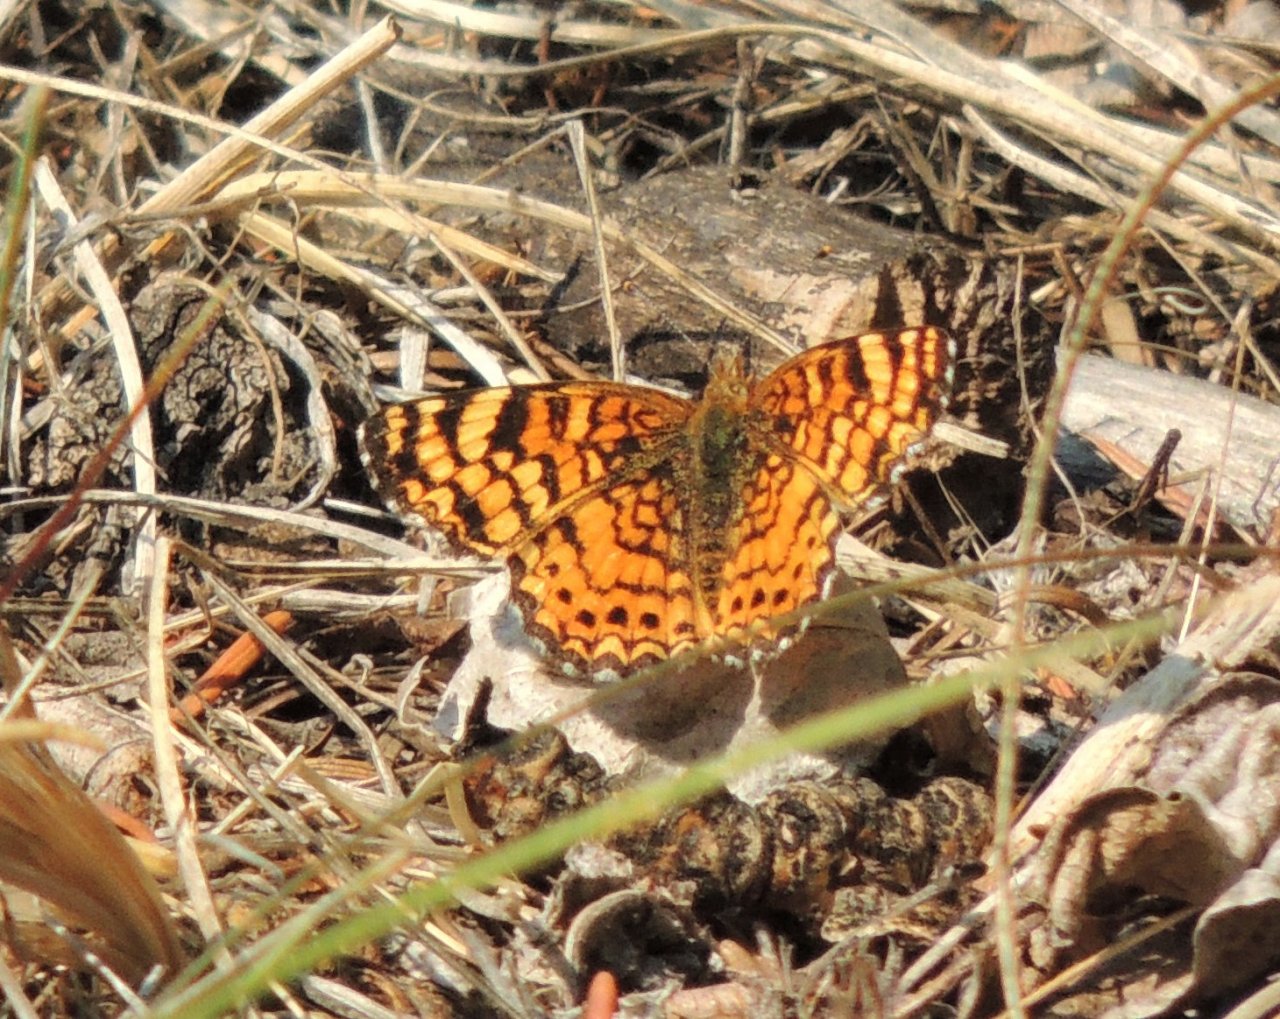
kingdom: Animalia
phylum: Arthropoda
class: Insecta
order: Lepidoptera
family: Nymphalidae
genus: Eresia
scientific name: Eresia aveyrona
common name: Mylitta Crescent
